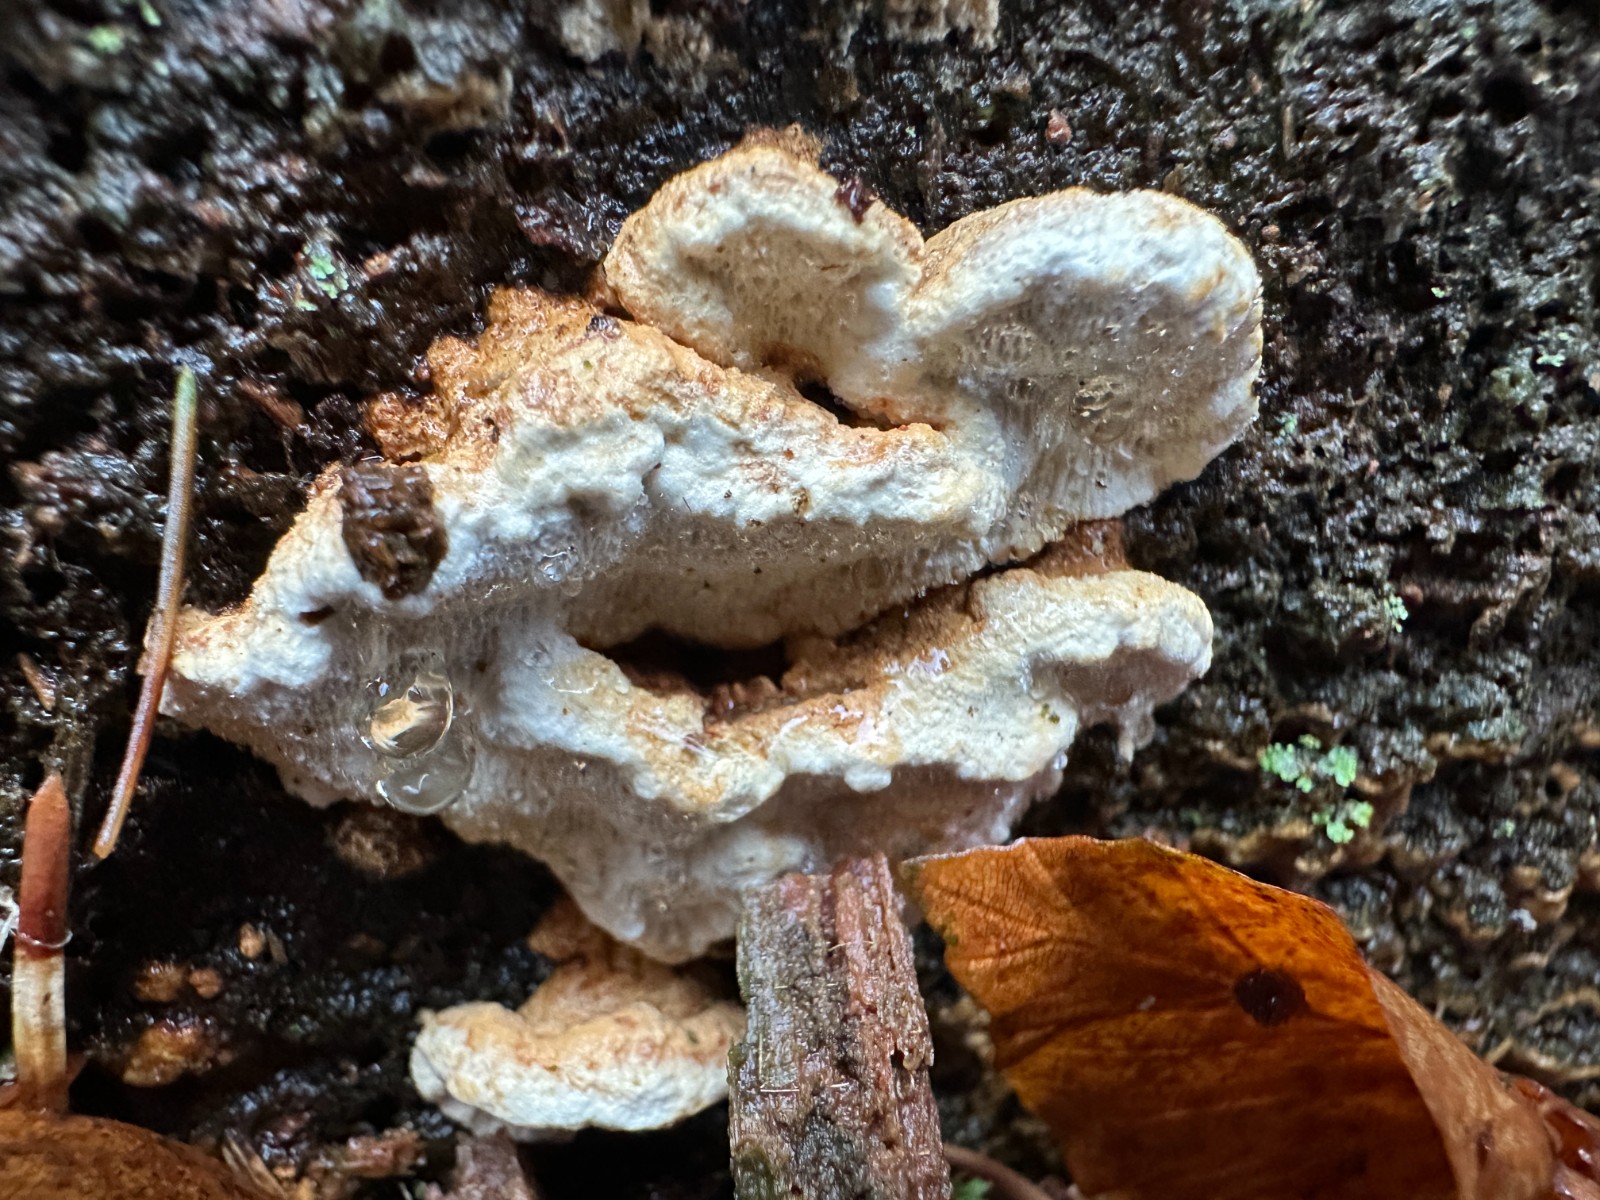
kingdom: Fungi
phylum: Basidiomycota
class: Agaricomycetes
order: Polyporales
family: Fomitopsidaceae
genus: Neoantrodia
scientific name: Neoantrodia serialis
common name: række-sejporesvamp
